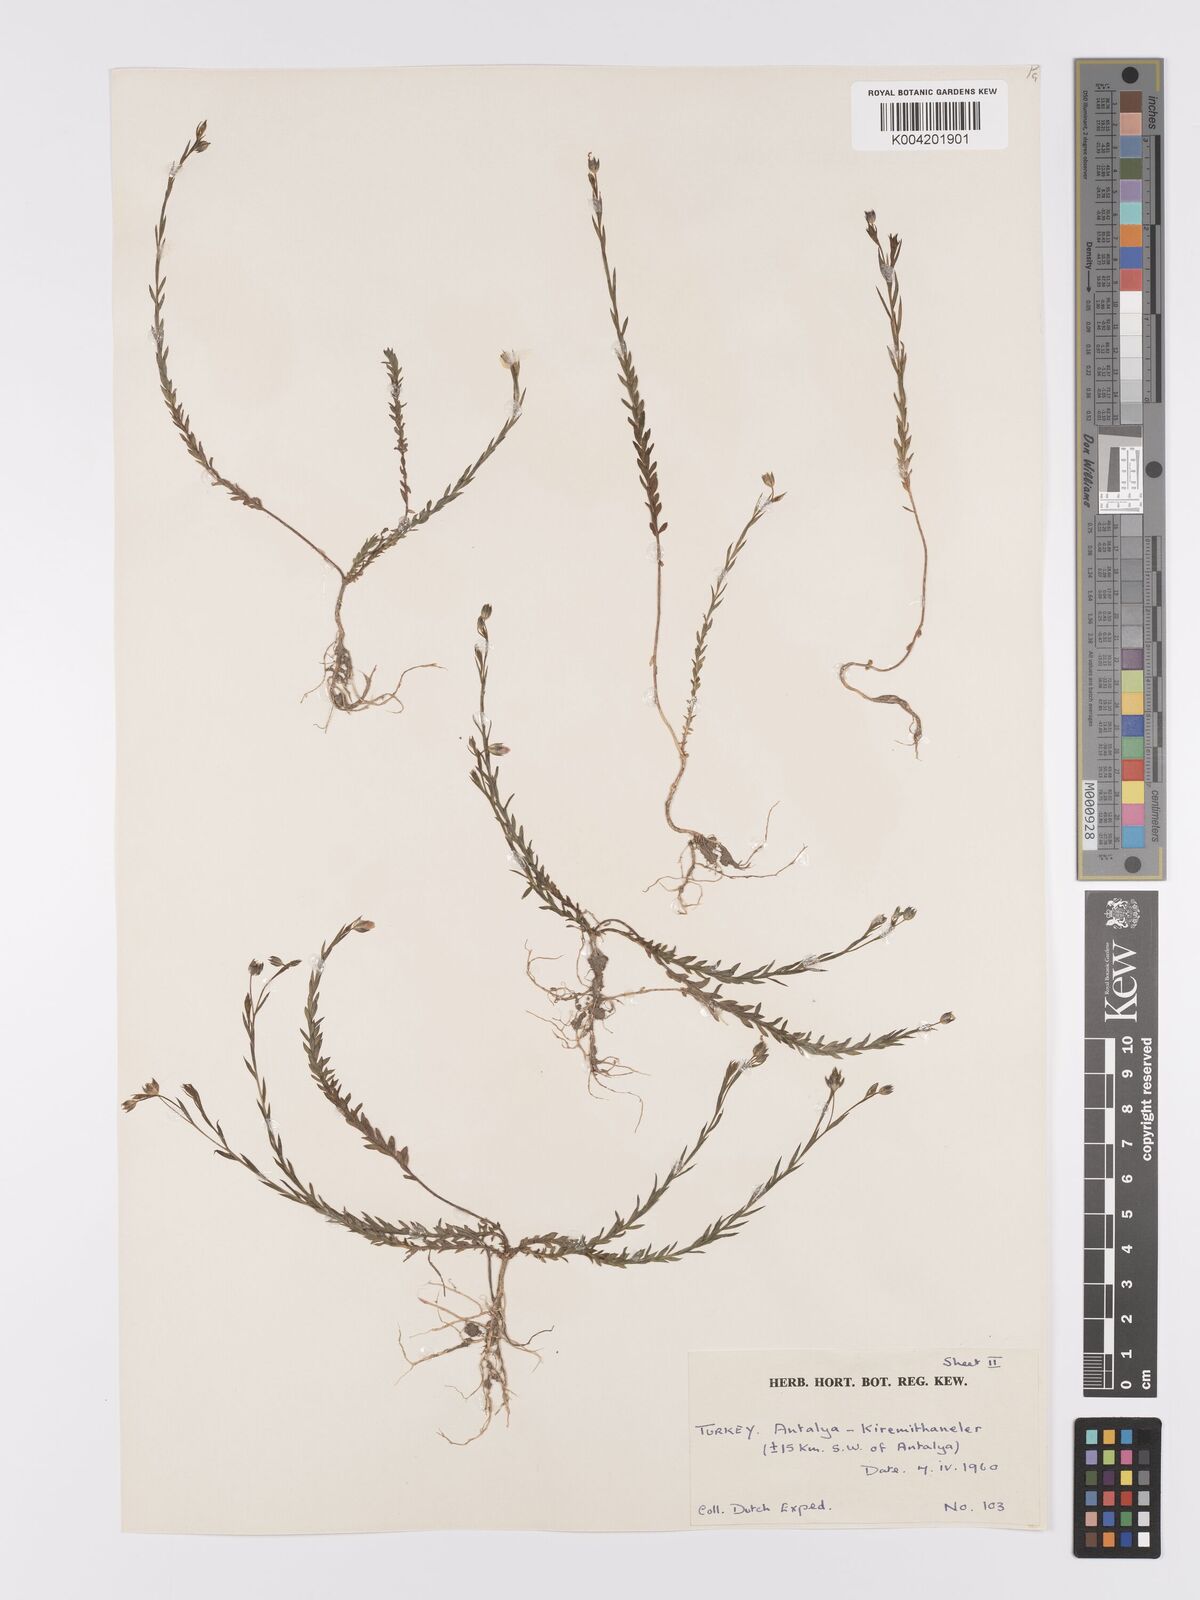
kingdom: Plantae
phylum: Tracheophyta
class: Magnoliopsida
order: Malpighiales
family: Linaceae
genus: Linum
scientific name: Linum
